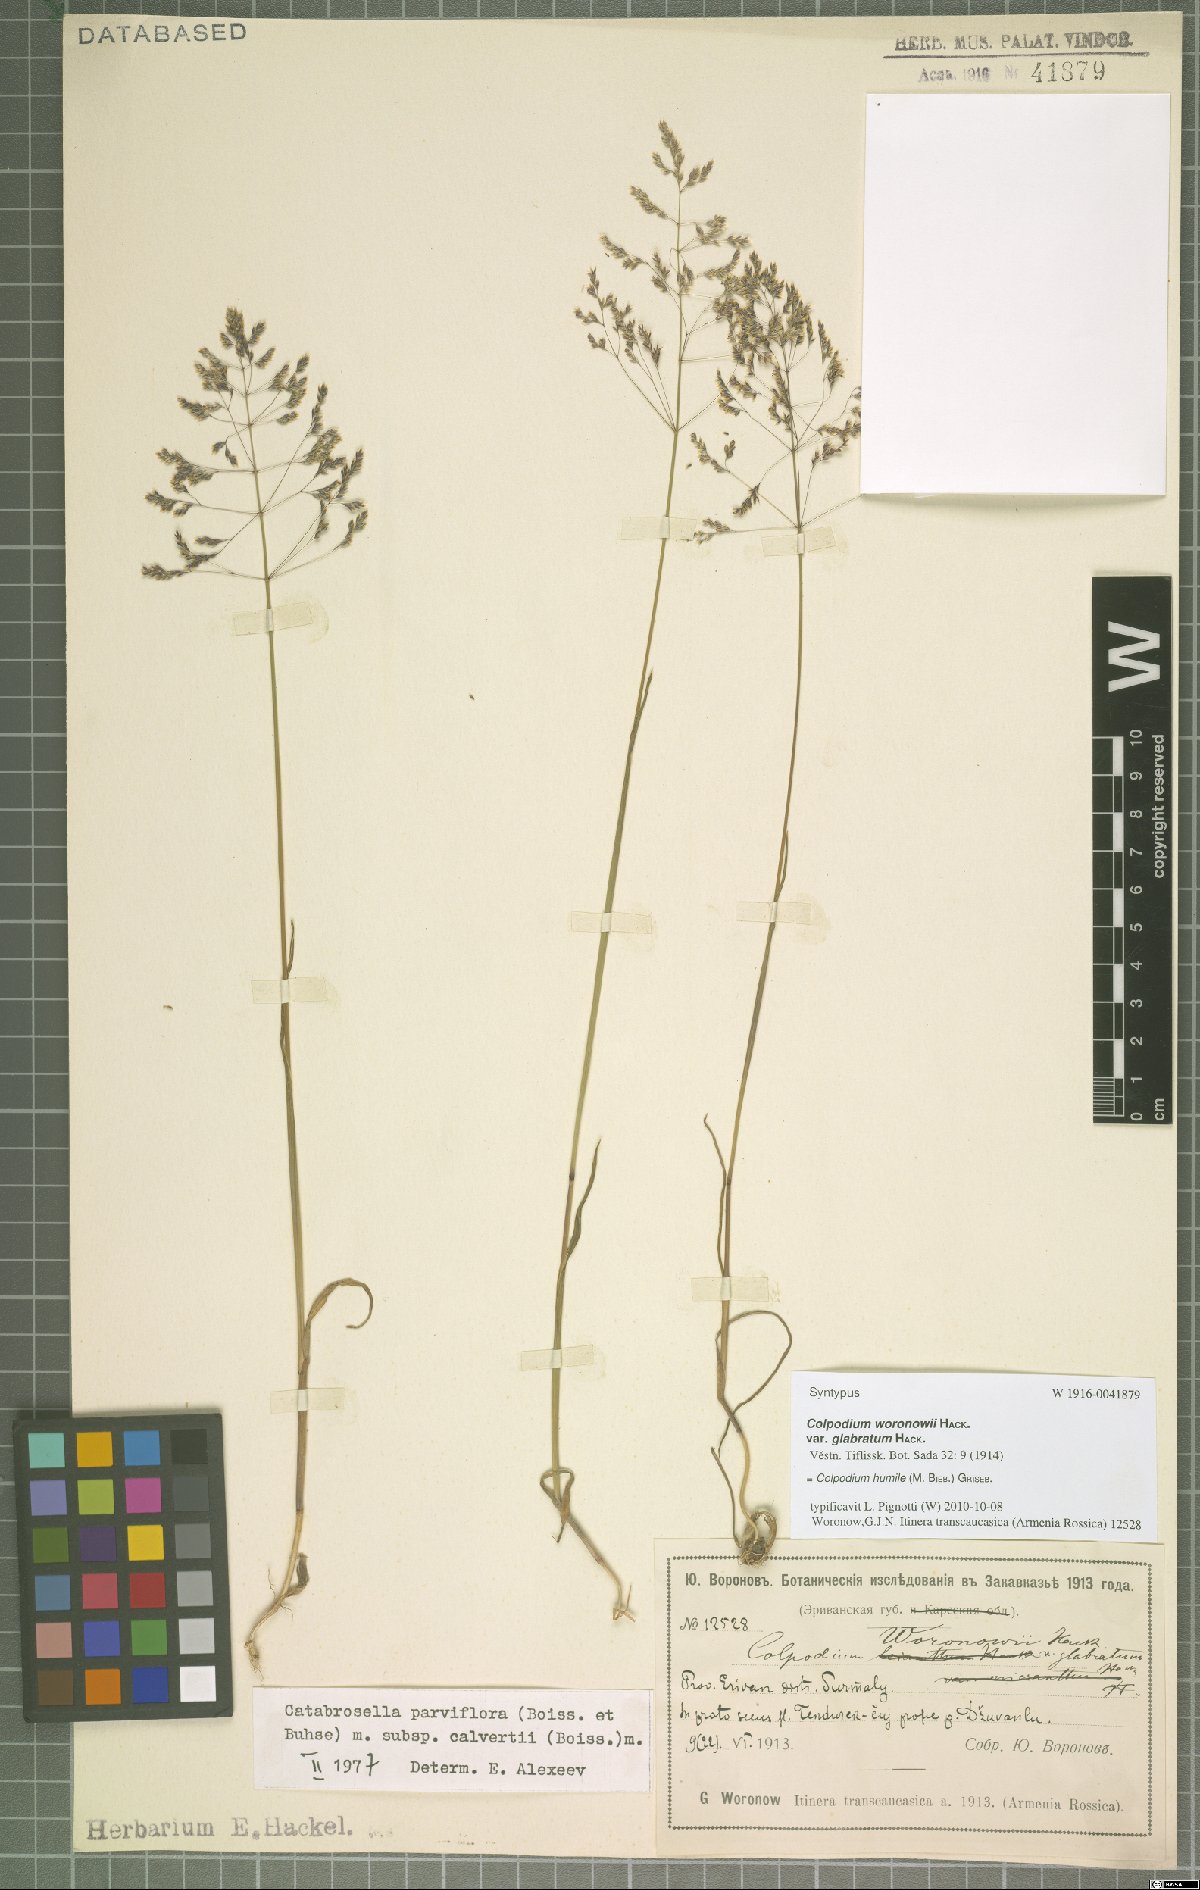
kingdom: Plantae
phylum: Tracheophyta
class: Liliopsida
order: Poales
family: Poaceae
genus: Catabrosella
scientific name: Catabrosella humilis
